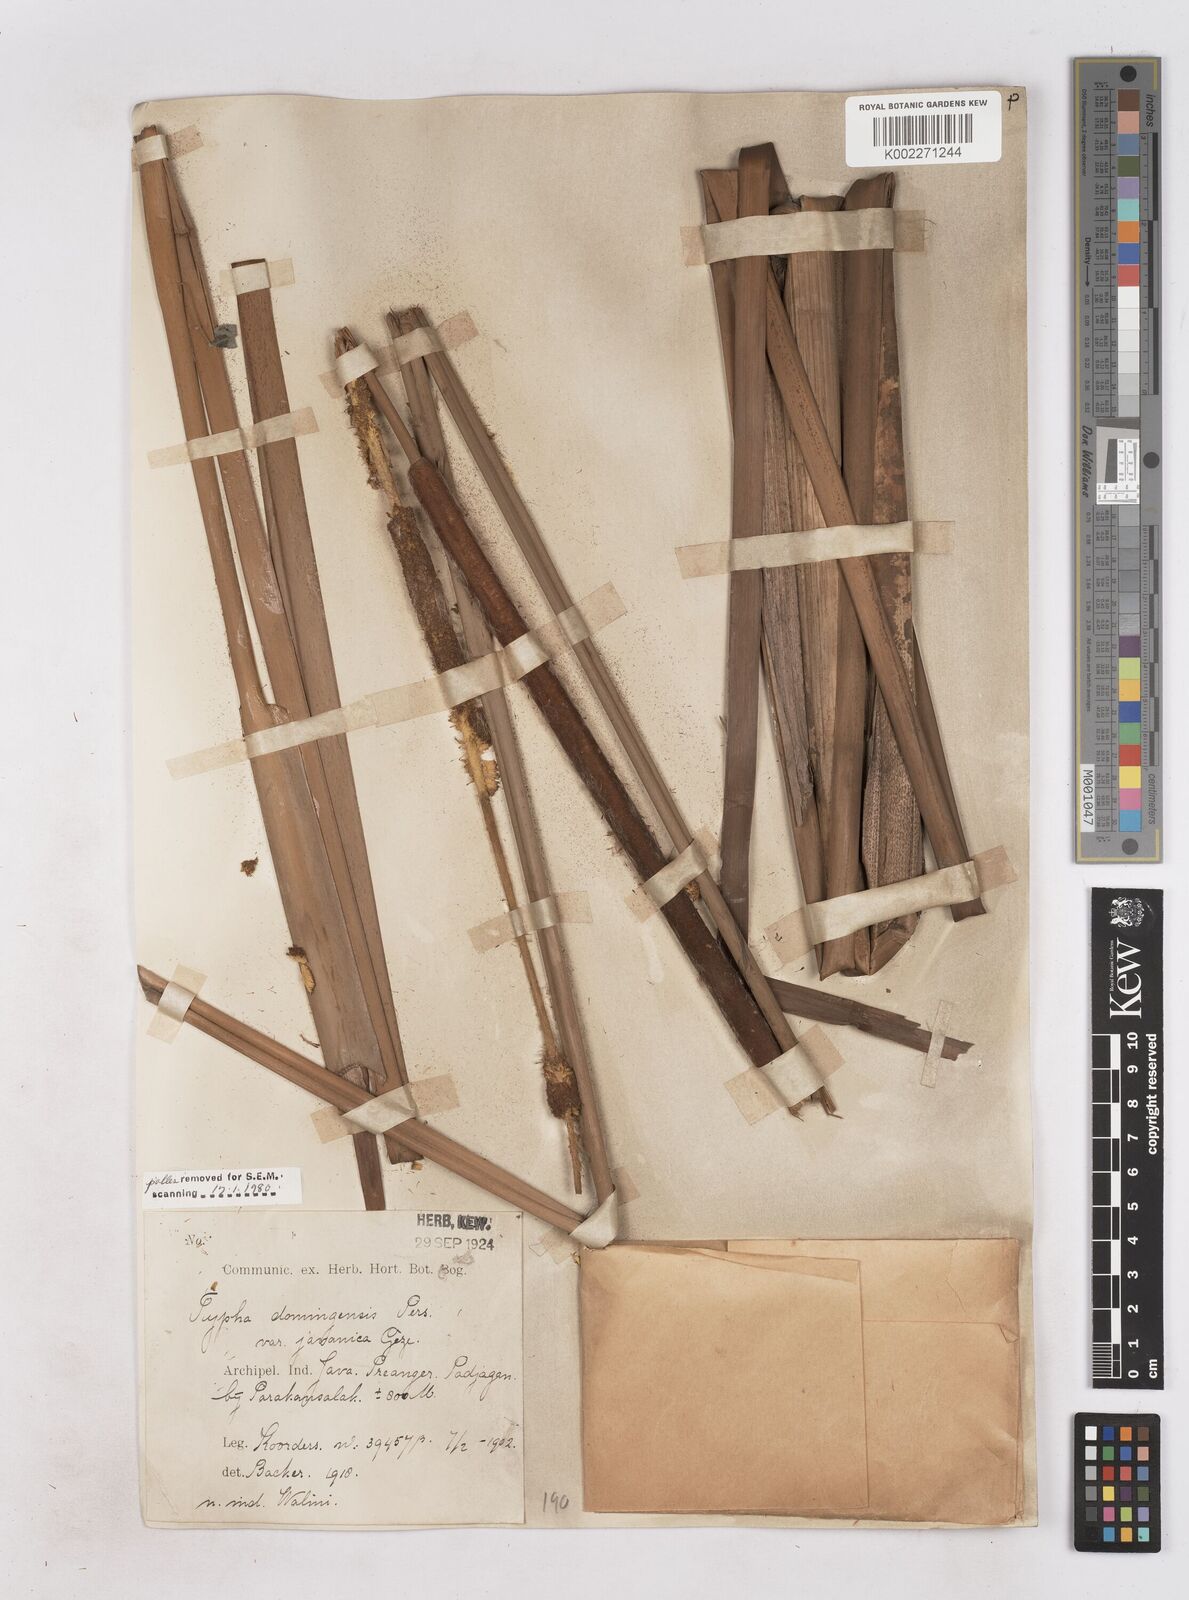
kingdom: Plantae
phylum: Tracheophyta
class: Liliopsida
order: Poales
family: Typhaceae
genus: Typha
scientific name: Typha domingensis
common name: Southern cattail
